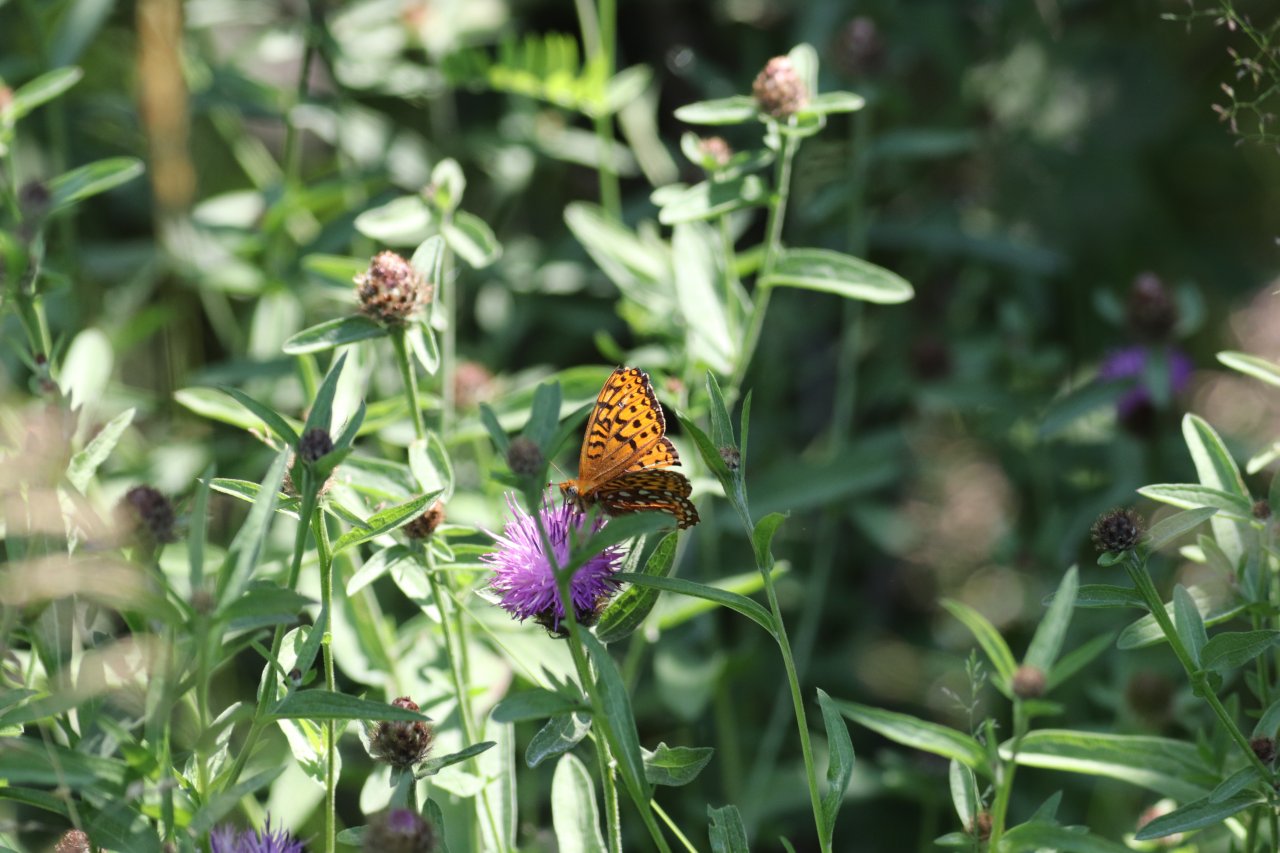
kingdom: Animalia
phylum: Arthropoda
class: Insecta
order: Lepidoptera
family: Nymphalidae
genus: Speyeria
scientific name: Speyeria cybele
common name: Great Spangled Fritillary
